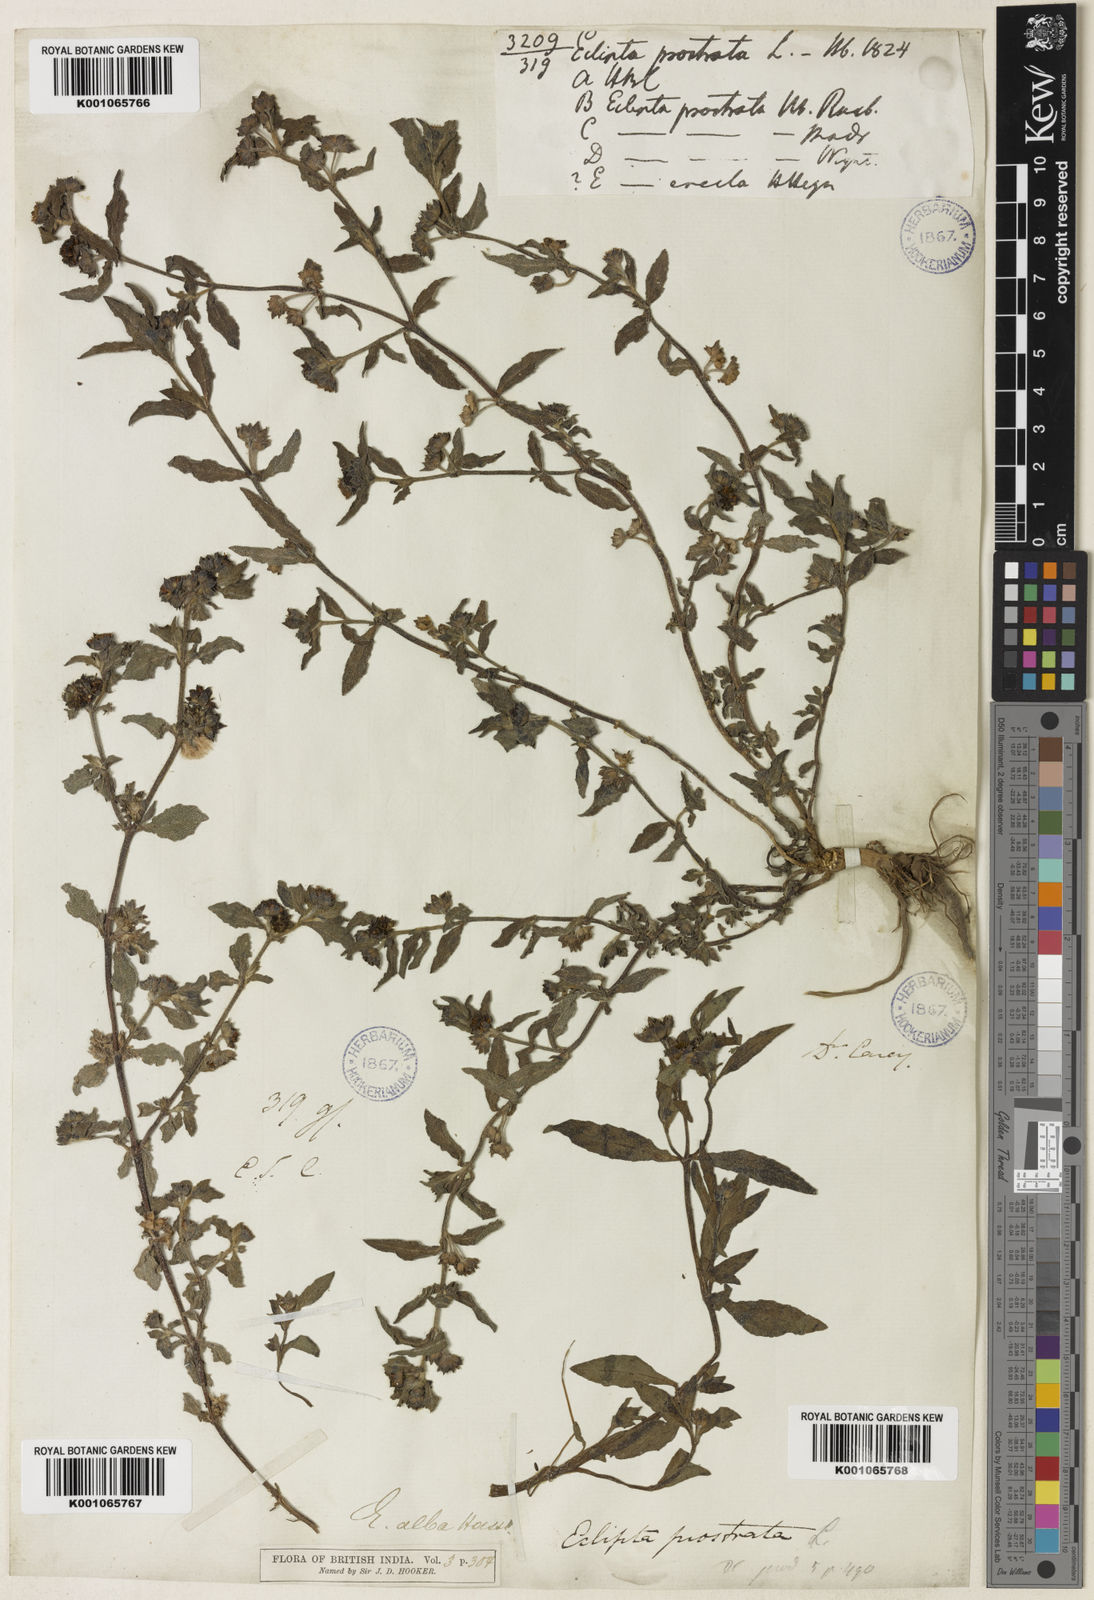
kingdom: Plantae
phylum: Tracheophyta
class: Magnoliopsida
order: Asterales
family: Asteraceae
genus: Eclipta
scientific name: Eclipta alba
